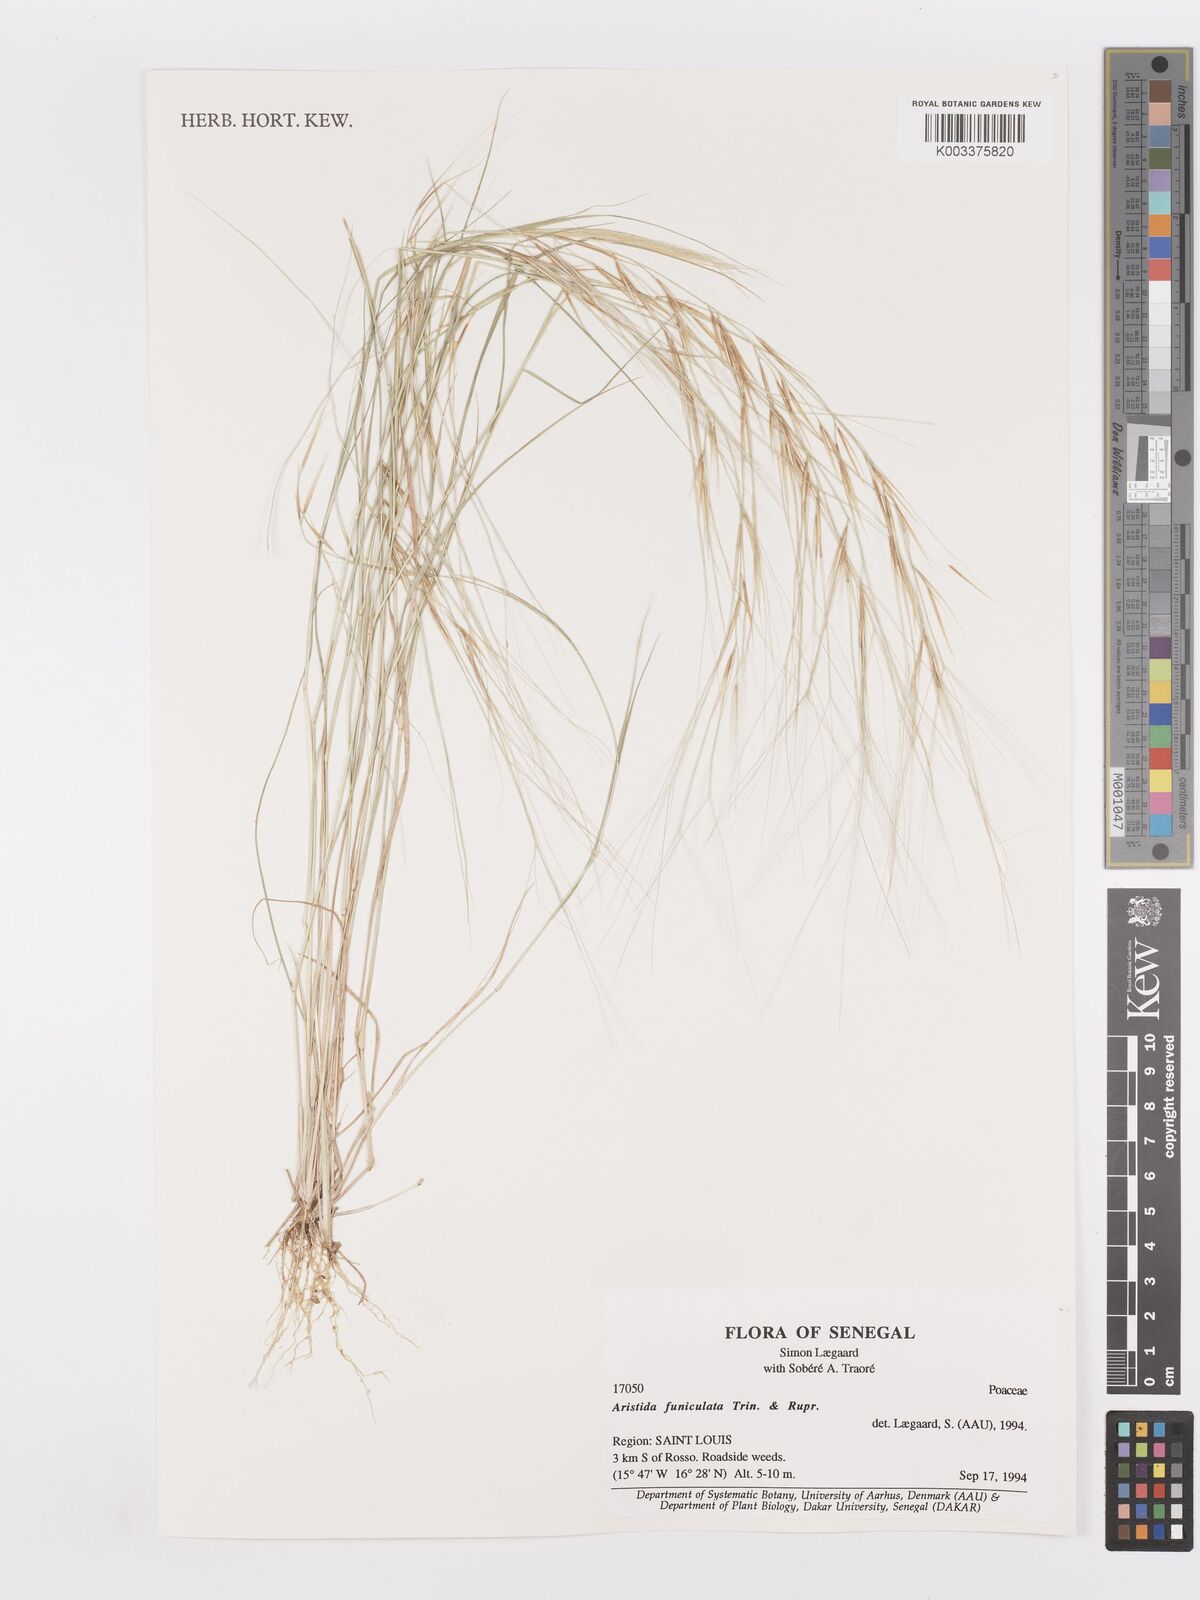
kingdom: Plantae
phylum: Tracheophyta
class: Liliopsida
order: Poales
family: Poaceae
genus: Aristida
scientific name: Aristida funiculata
